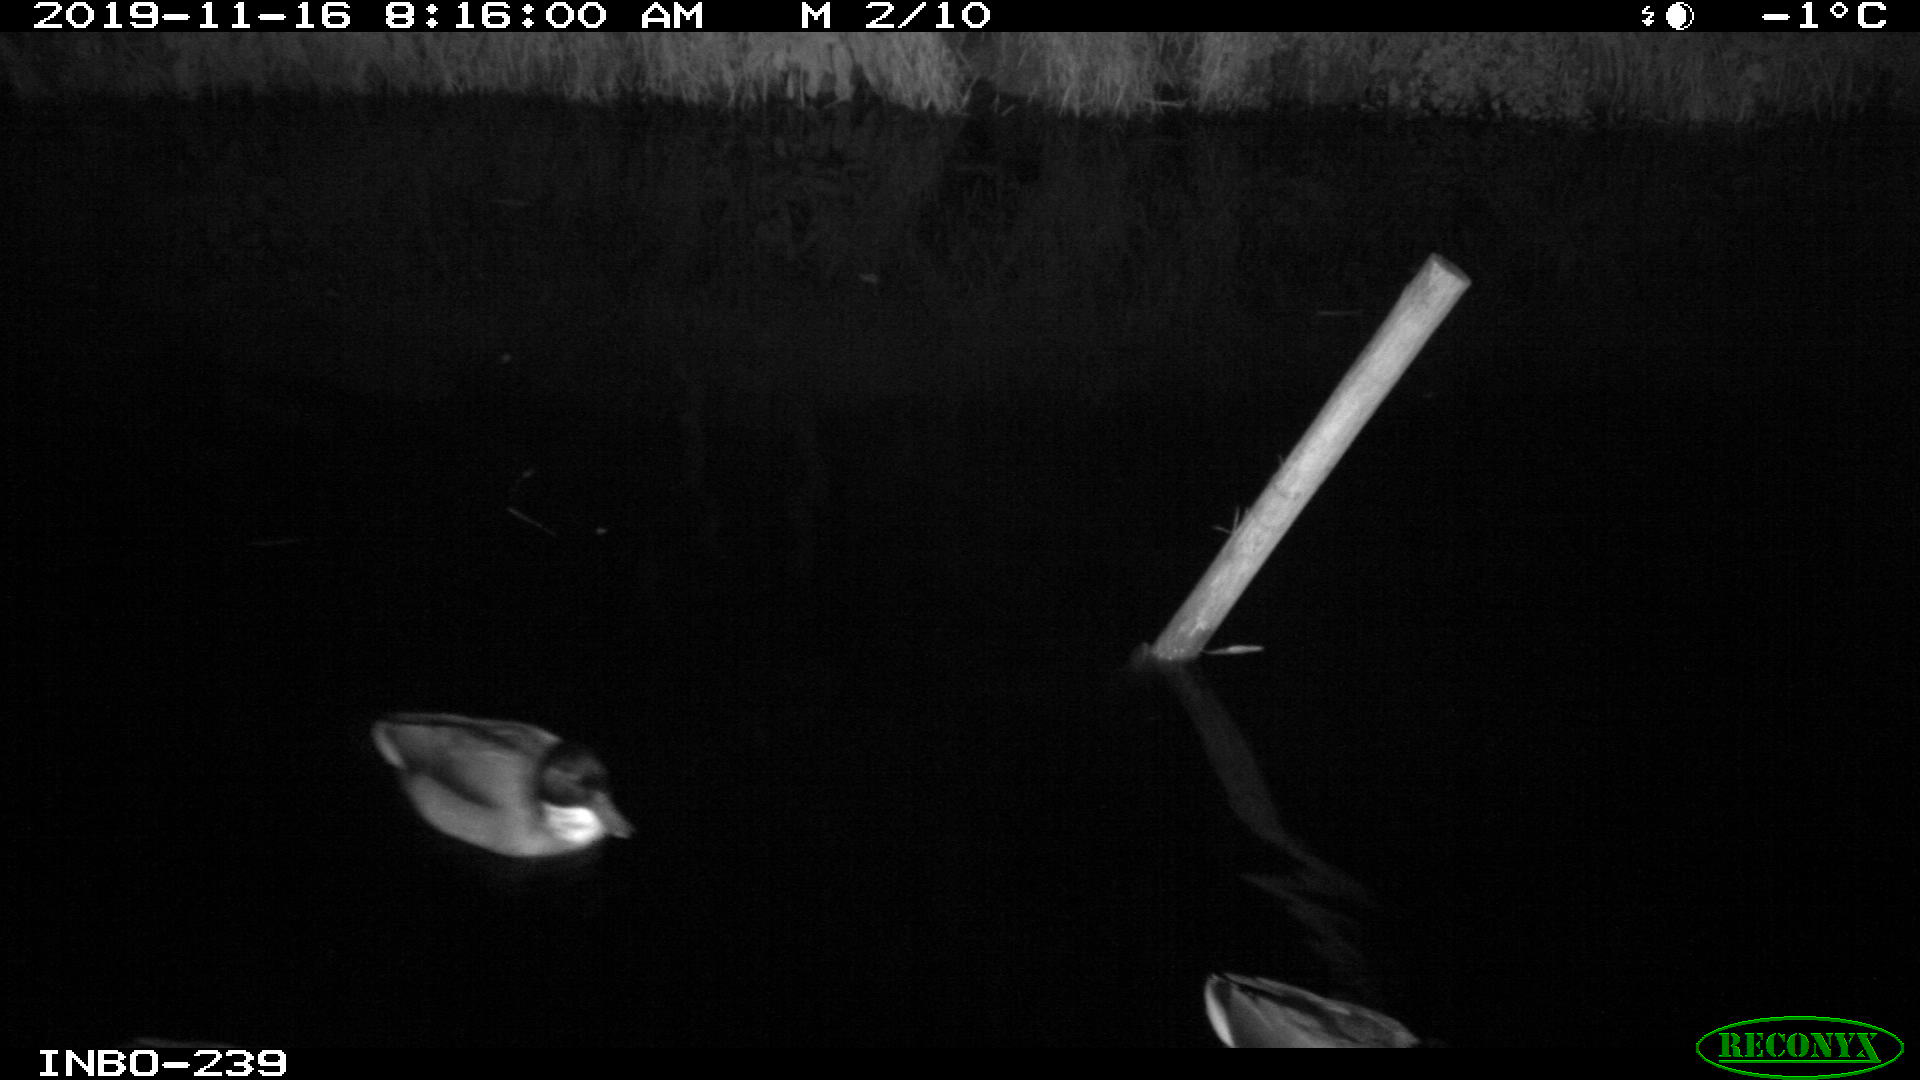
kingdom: Animalia
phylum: Chordata
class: Aves
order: Anseriformes
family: Anatidae
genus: Anas
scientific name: Anas platyrhynchos
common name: Mallard
